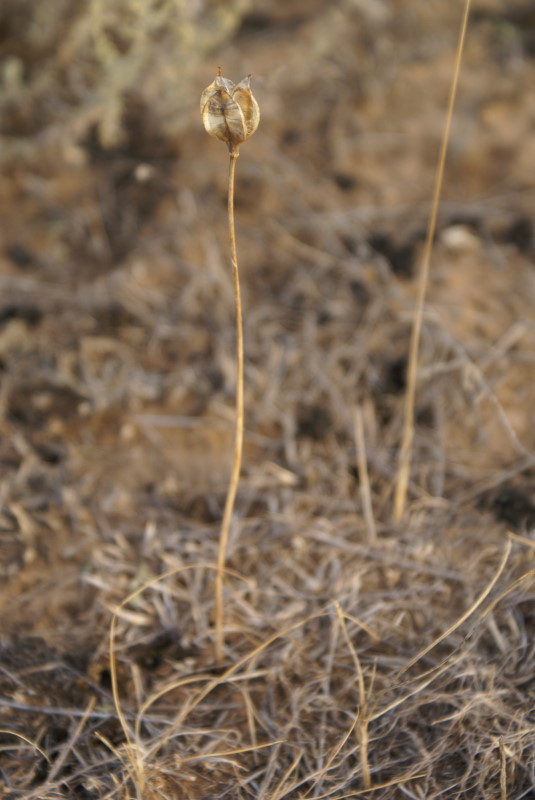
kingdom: Plantae
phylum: Tracheophyta
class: Liliopsida
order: Liliales
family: Liliaceae
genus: Tulipa
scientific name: Tulipa
